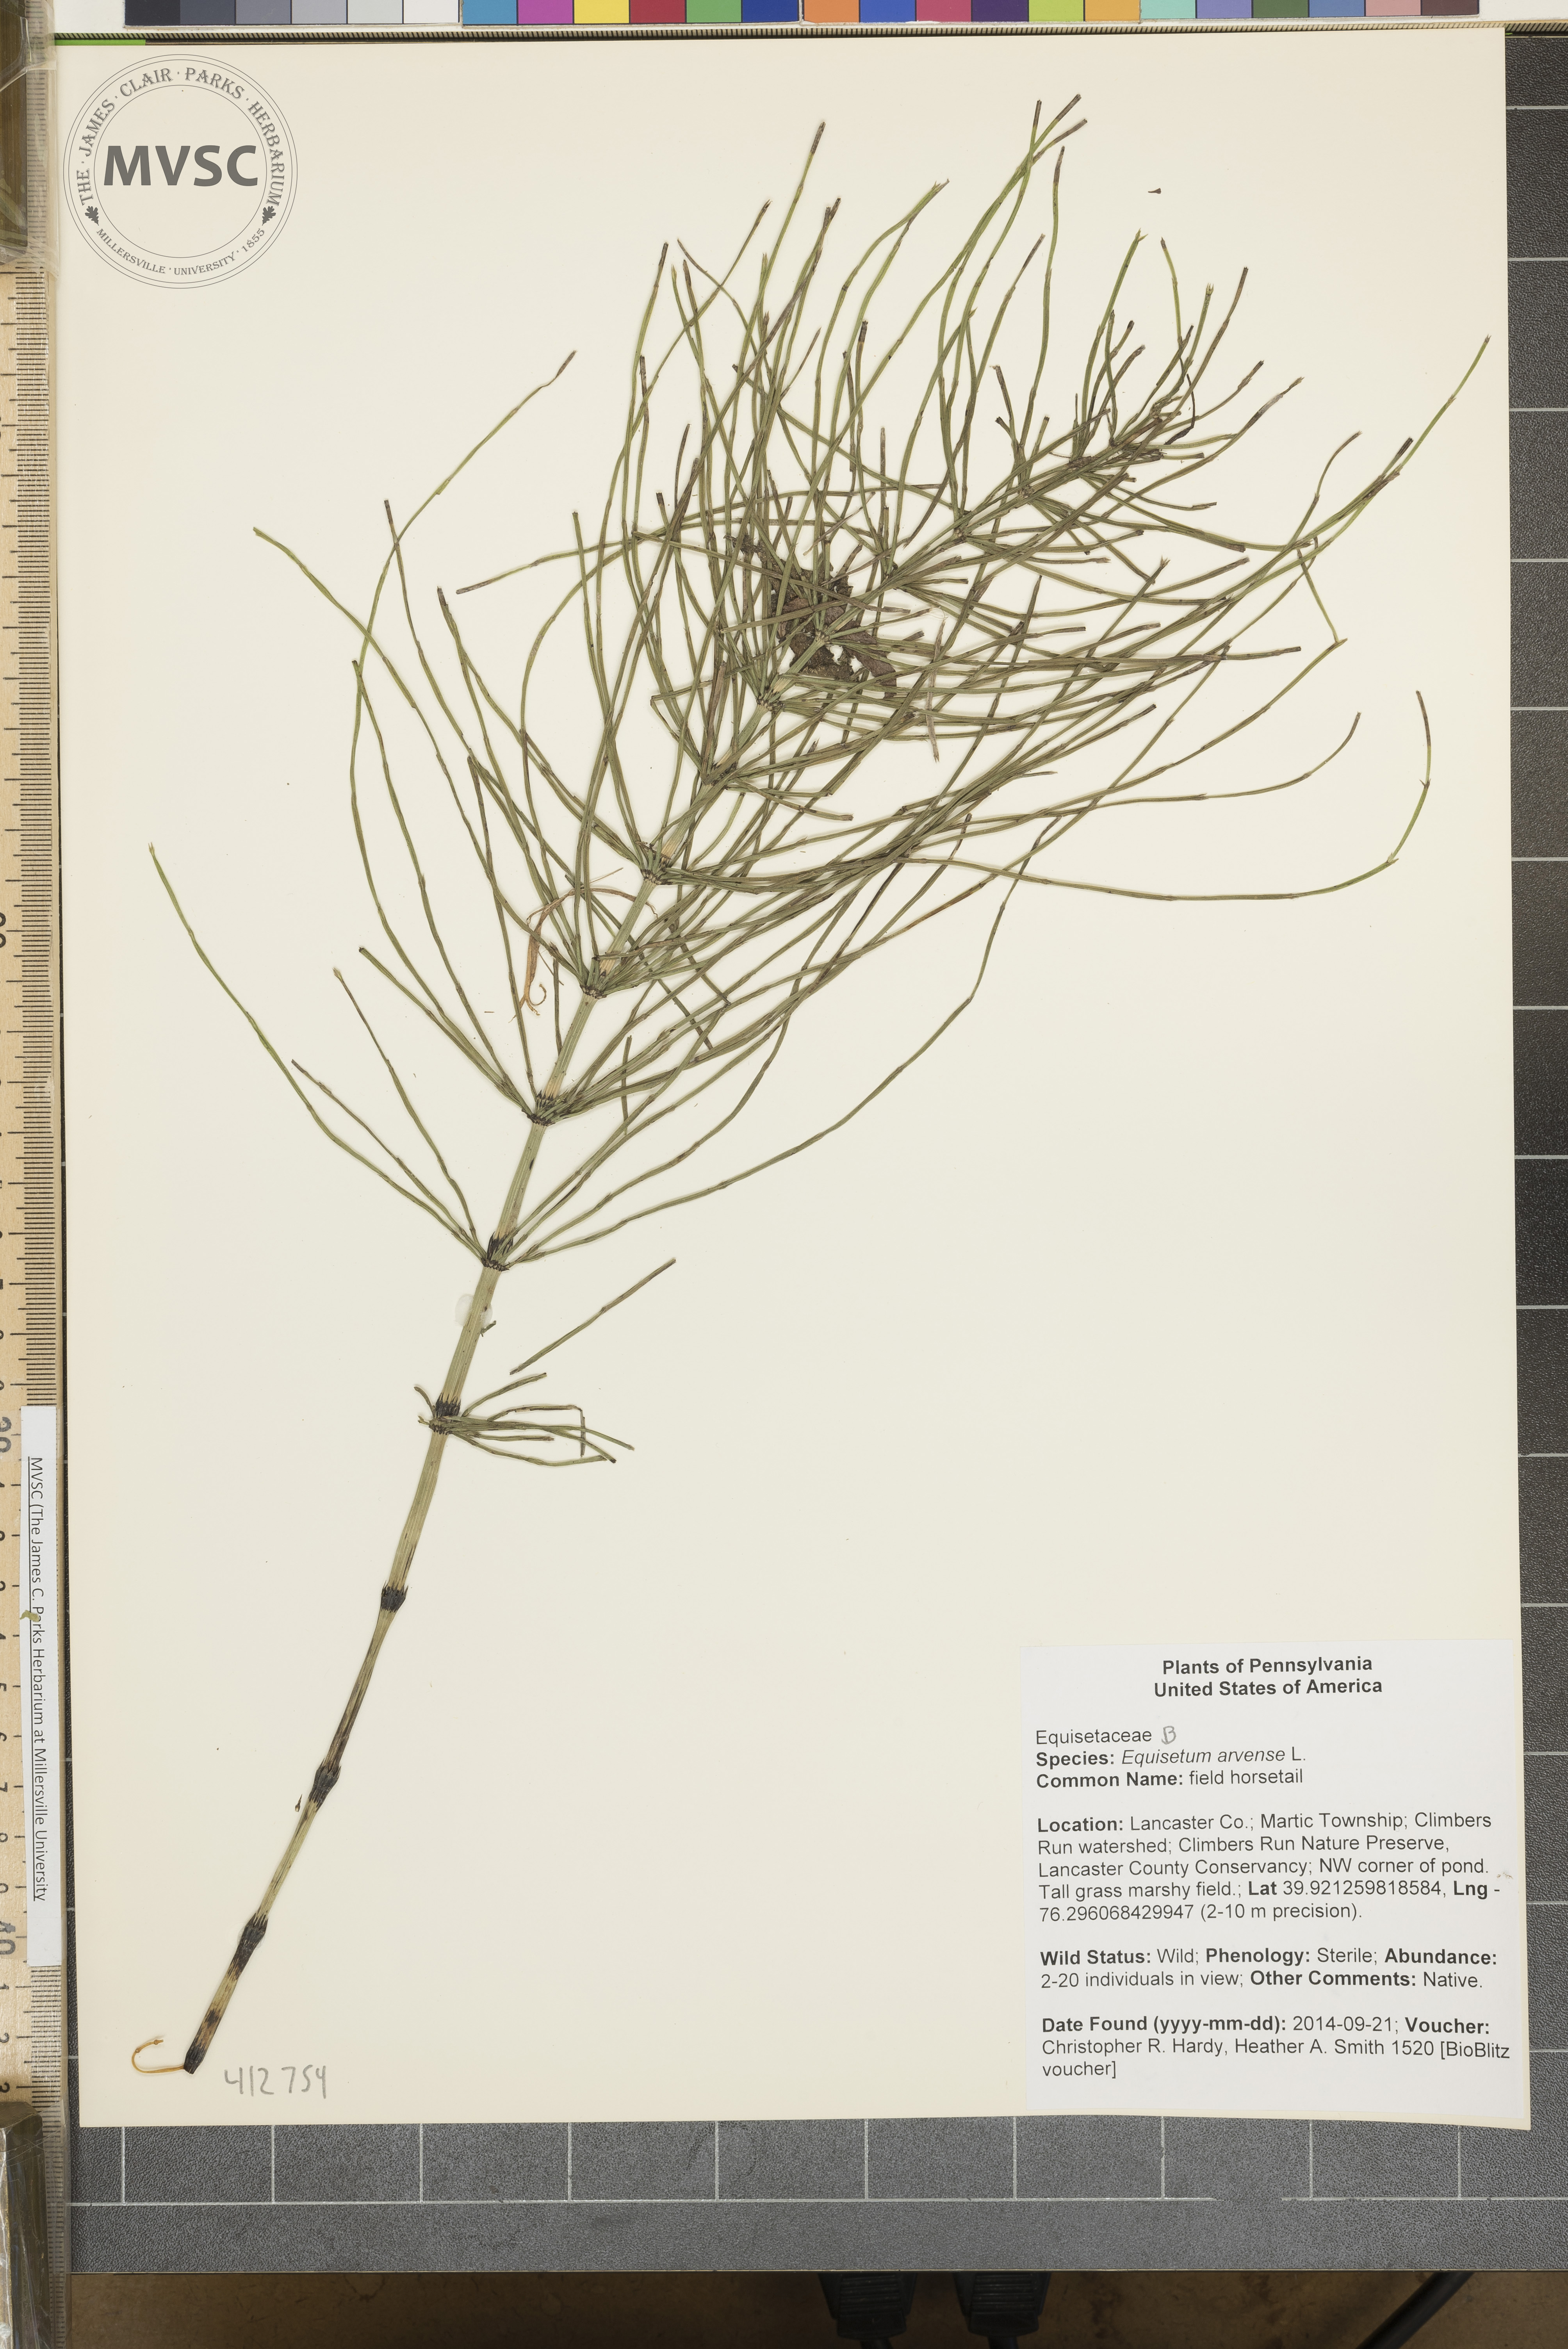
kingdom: Plantae
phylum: Tracheophyta
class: Polypodiopsida
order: Equisetales
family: Equisetaceae
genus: Equisetum
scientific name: Equisetum arvense
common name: field horsetail
